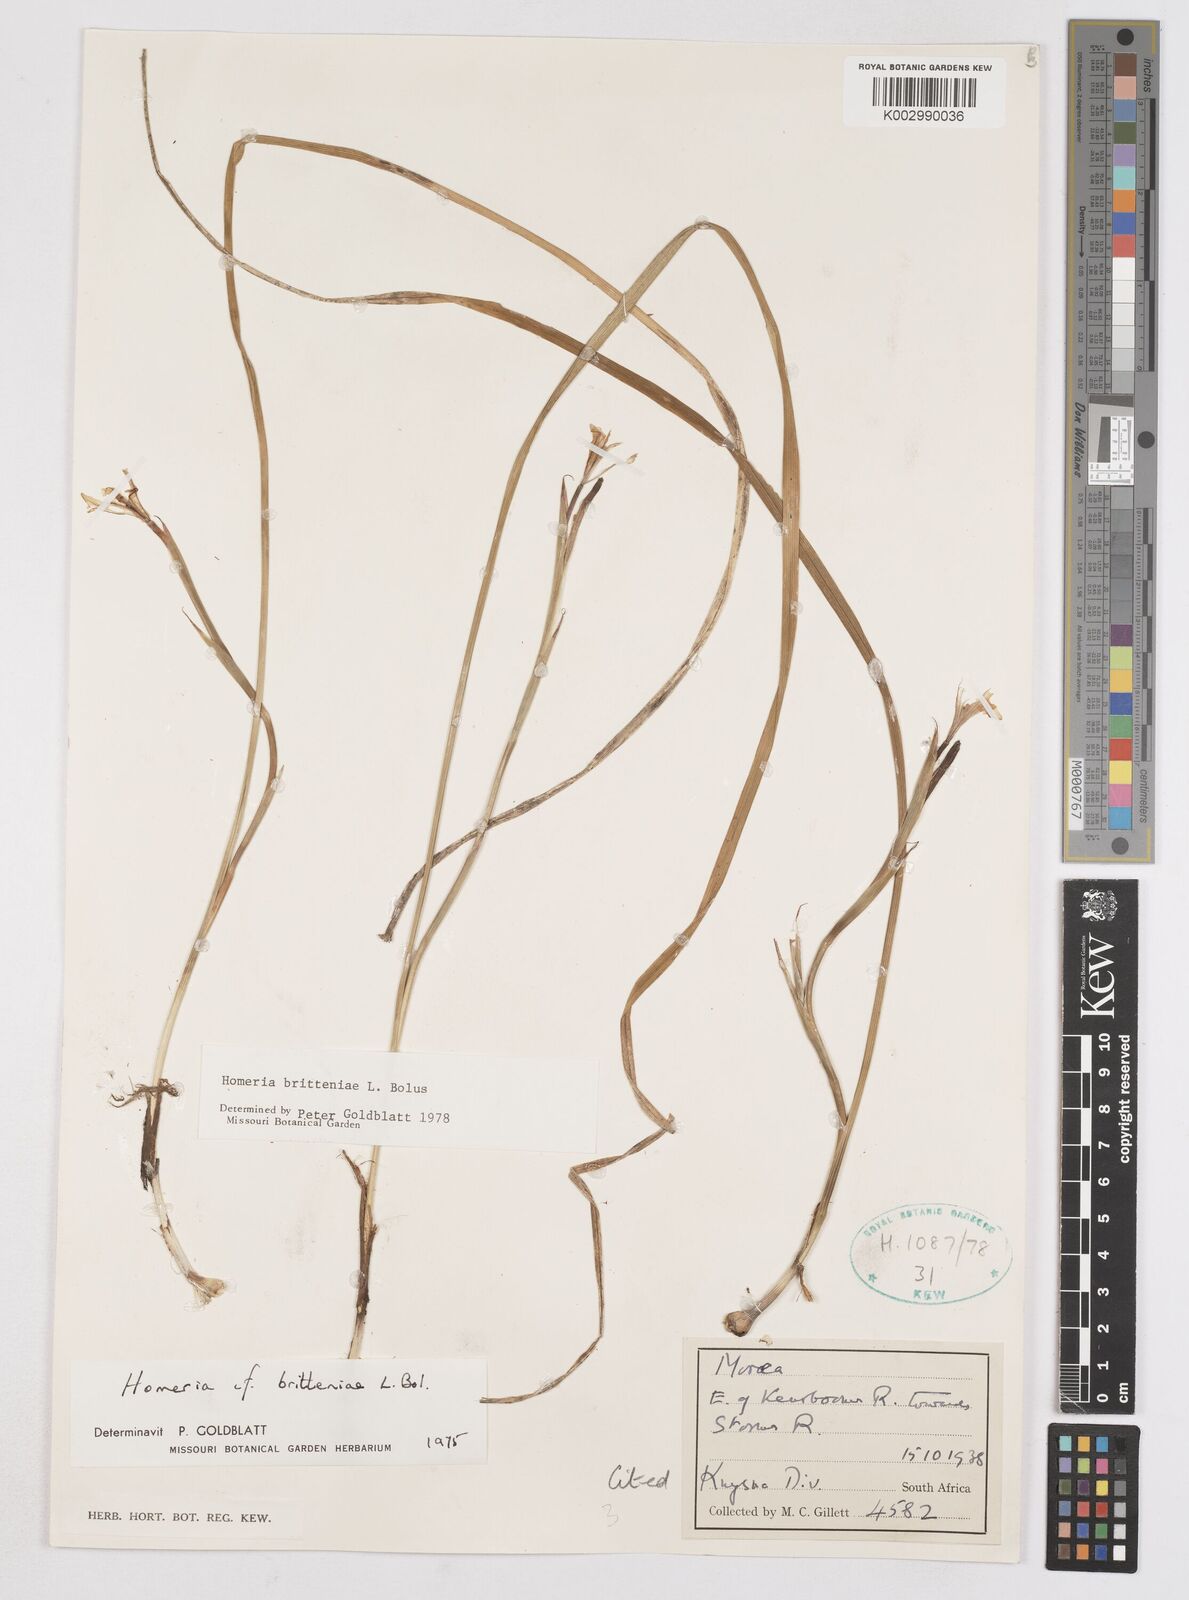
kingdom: Plantae
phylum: Tracheophyta
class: Liliopsida
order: Asparagales
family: Iridaceae
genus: Moraea
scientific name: Moraea britteniae
